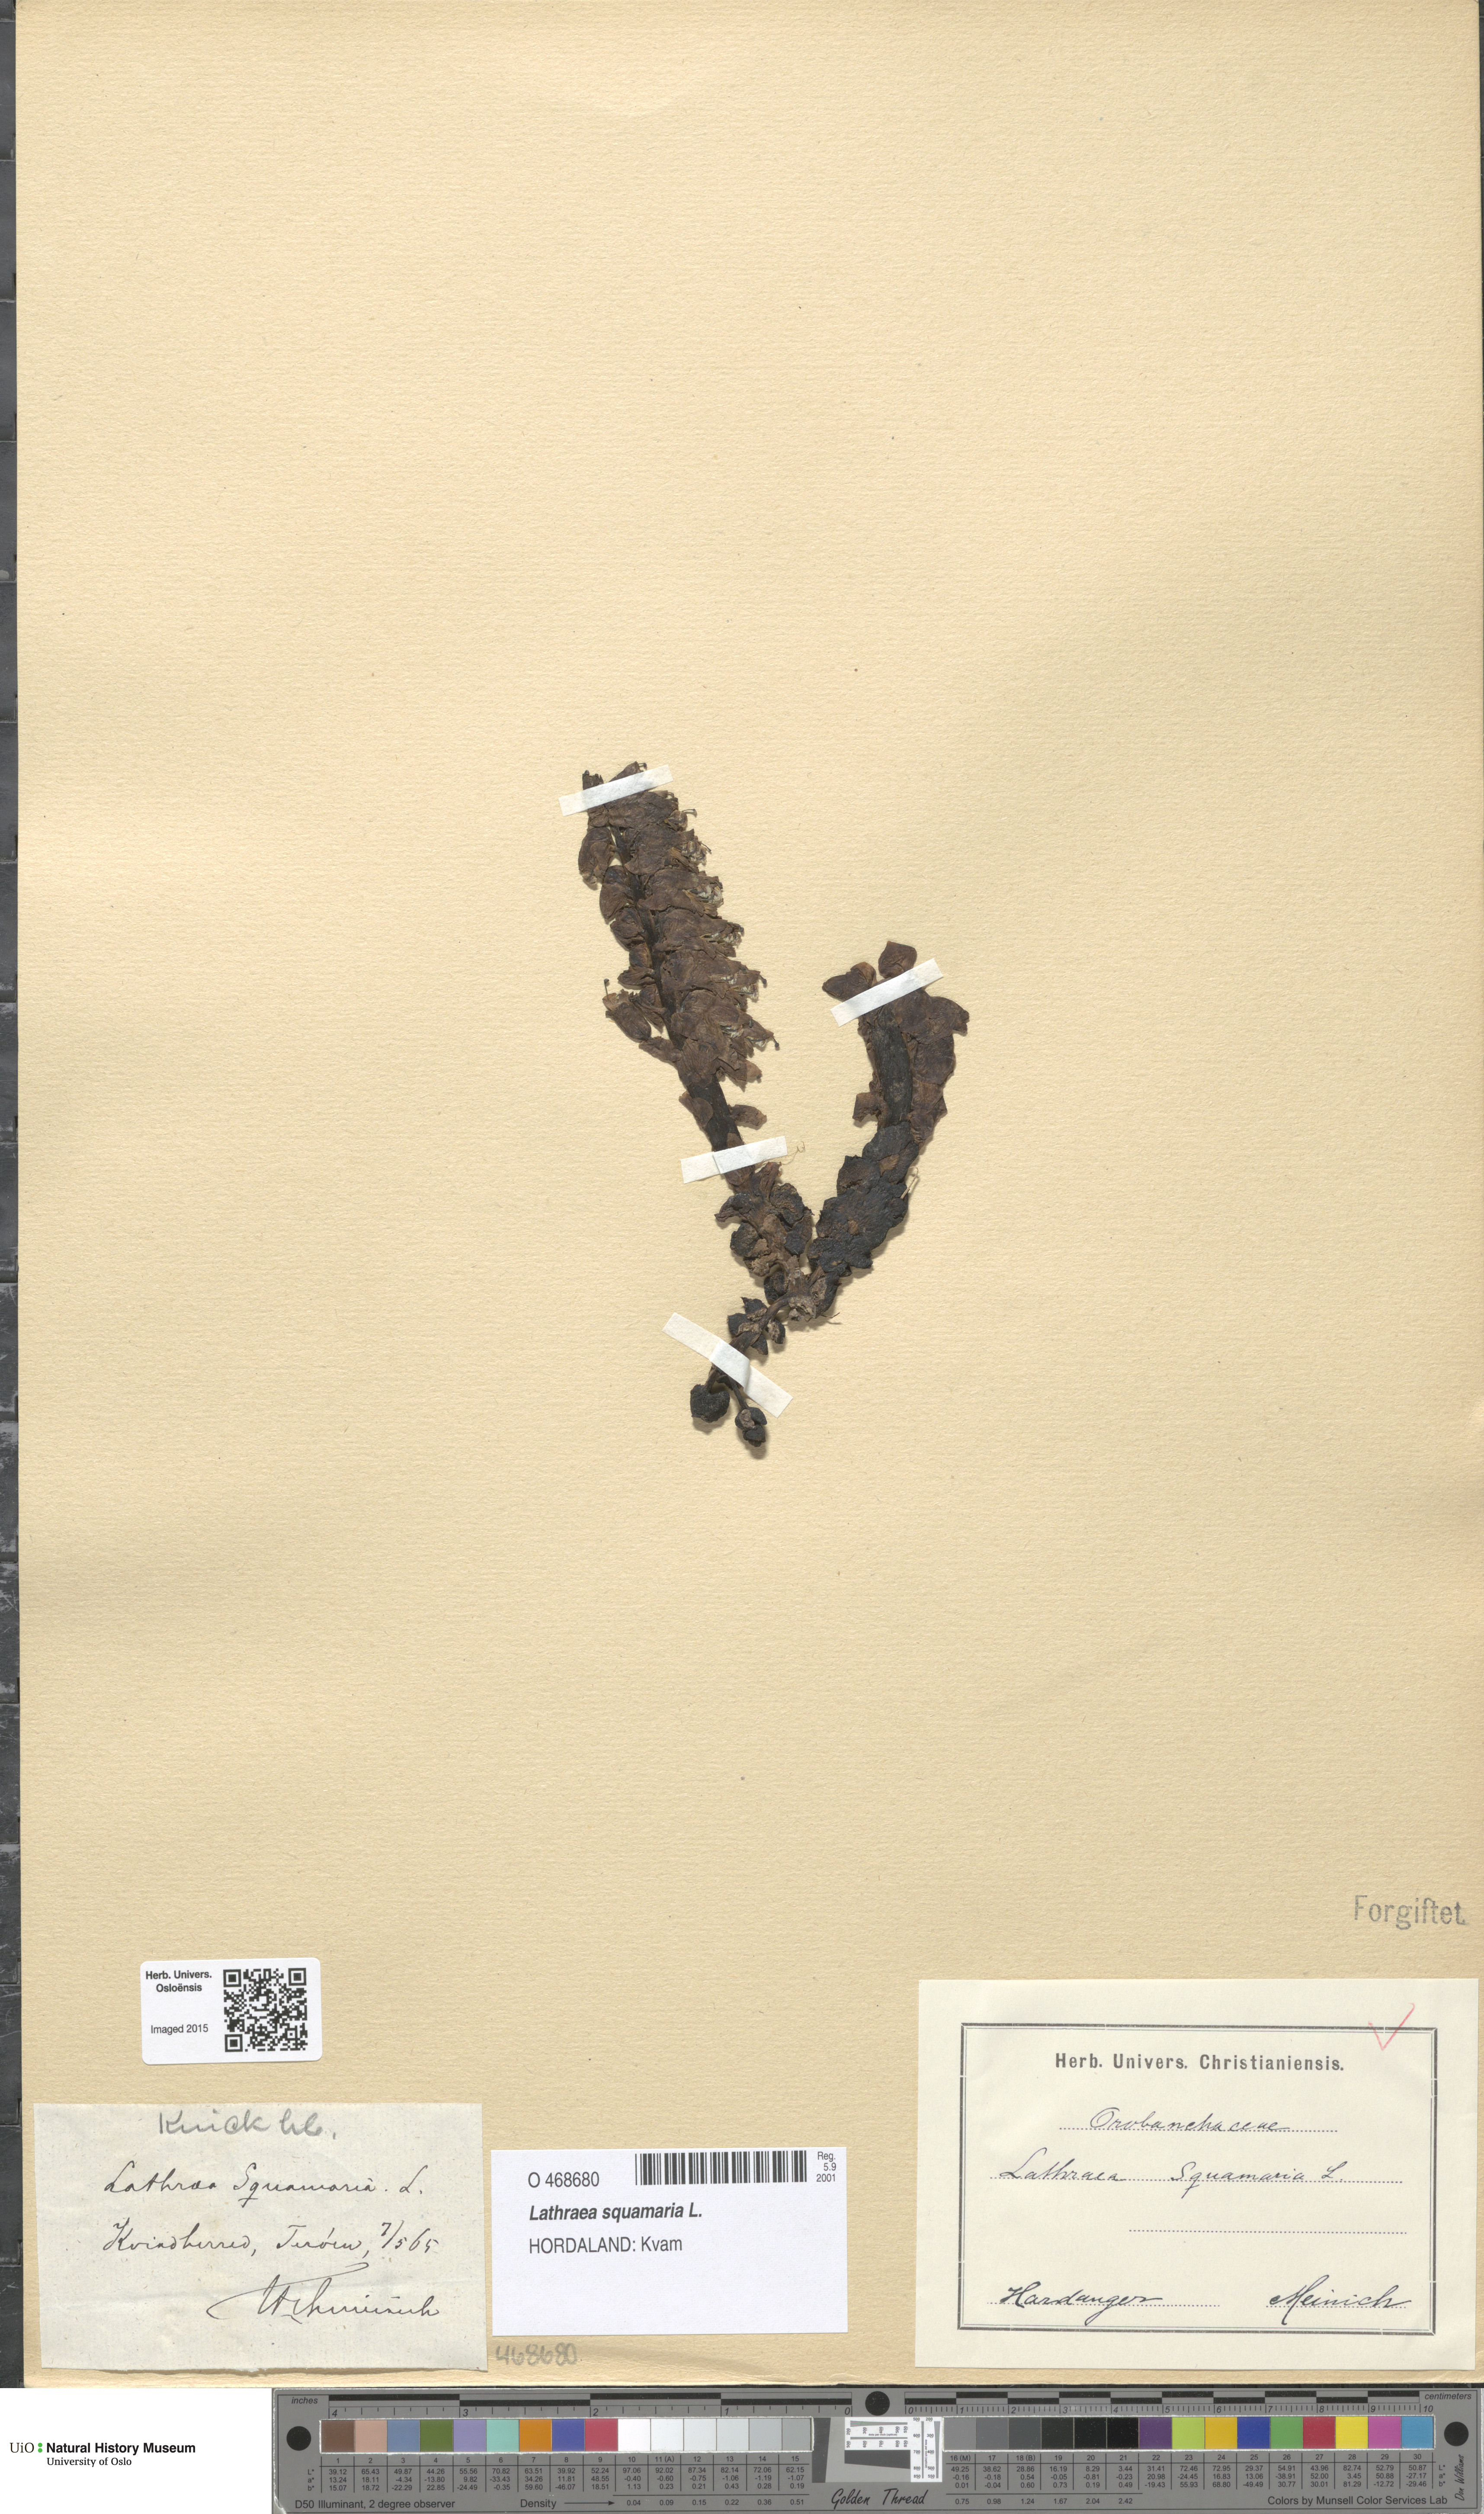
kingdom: Plantae
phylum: Tracheophyta
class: Magnoliopsida
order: Lamiales
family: Orobanchaceae
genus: Lathraea
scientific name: Lathraea squamaria
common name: Toothwort
